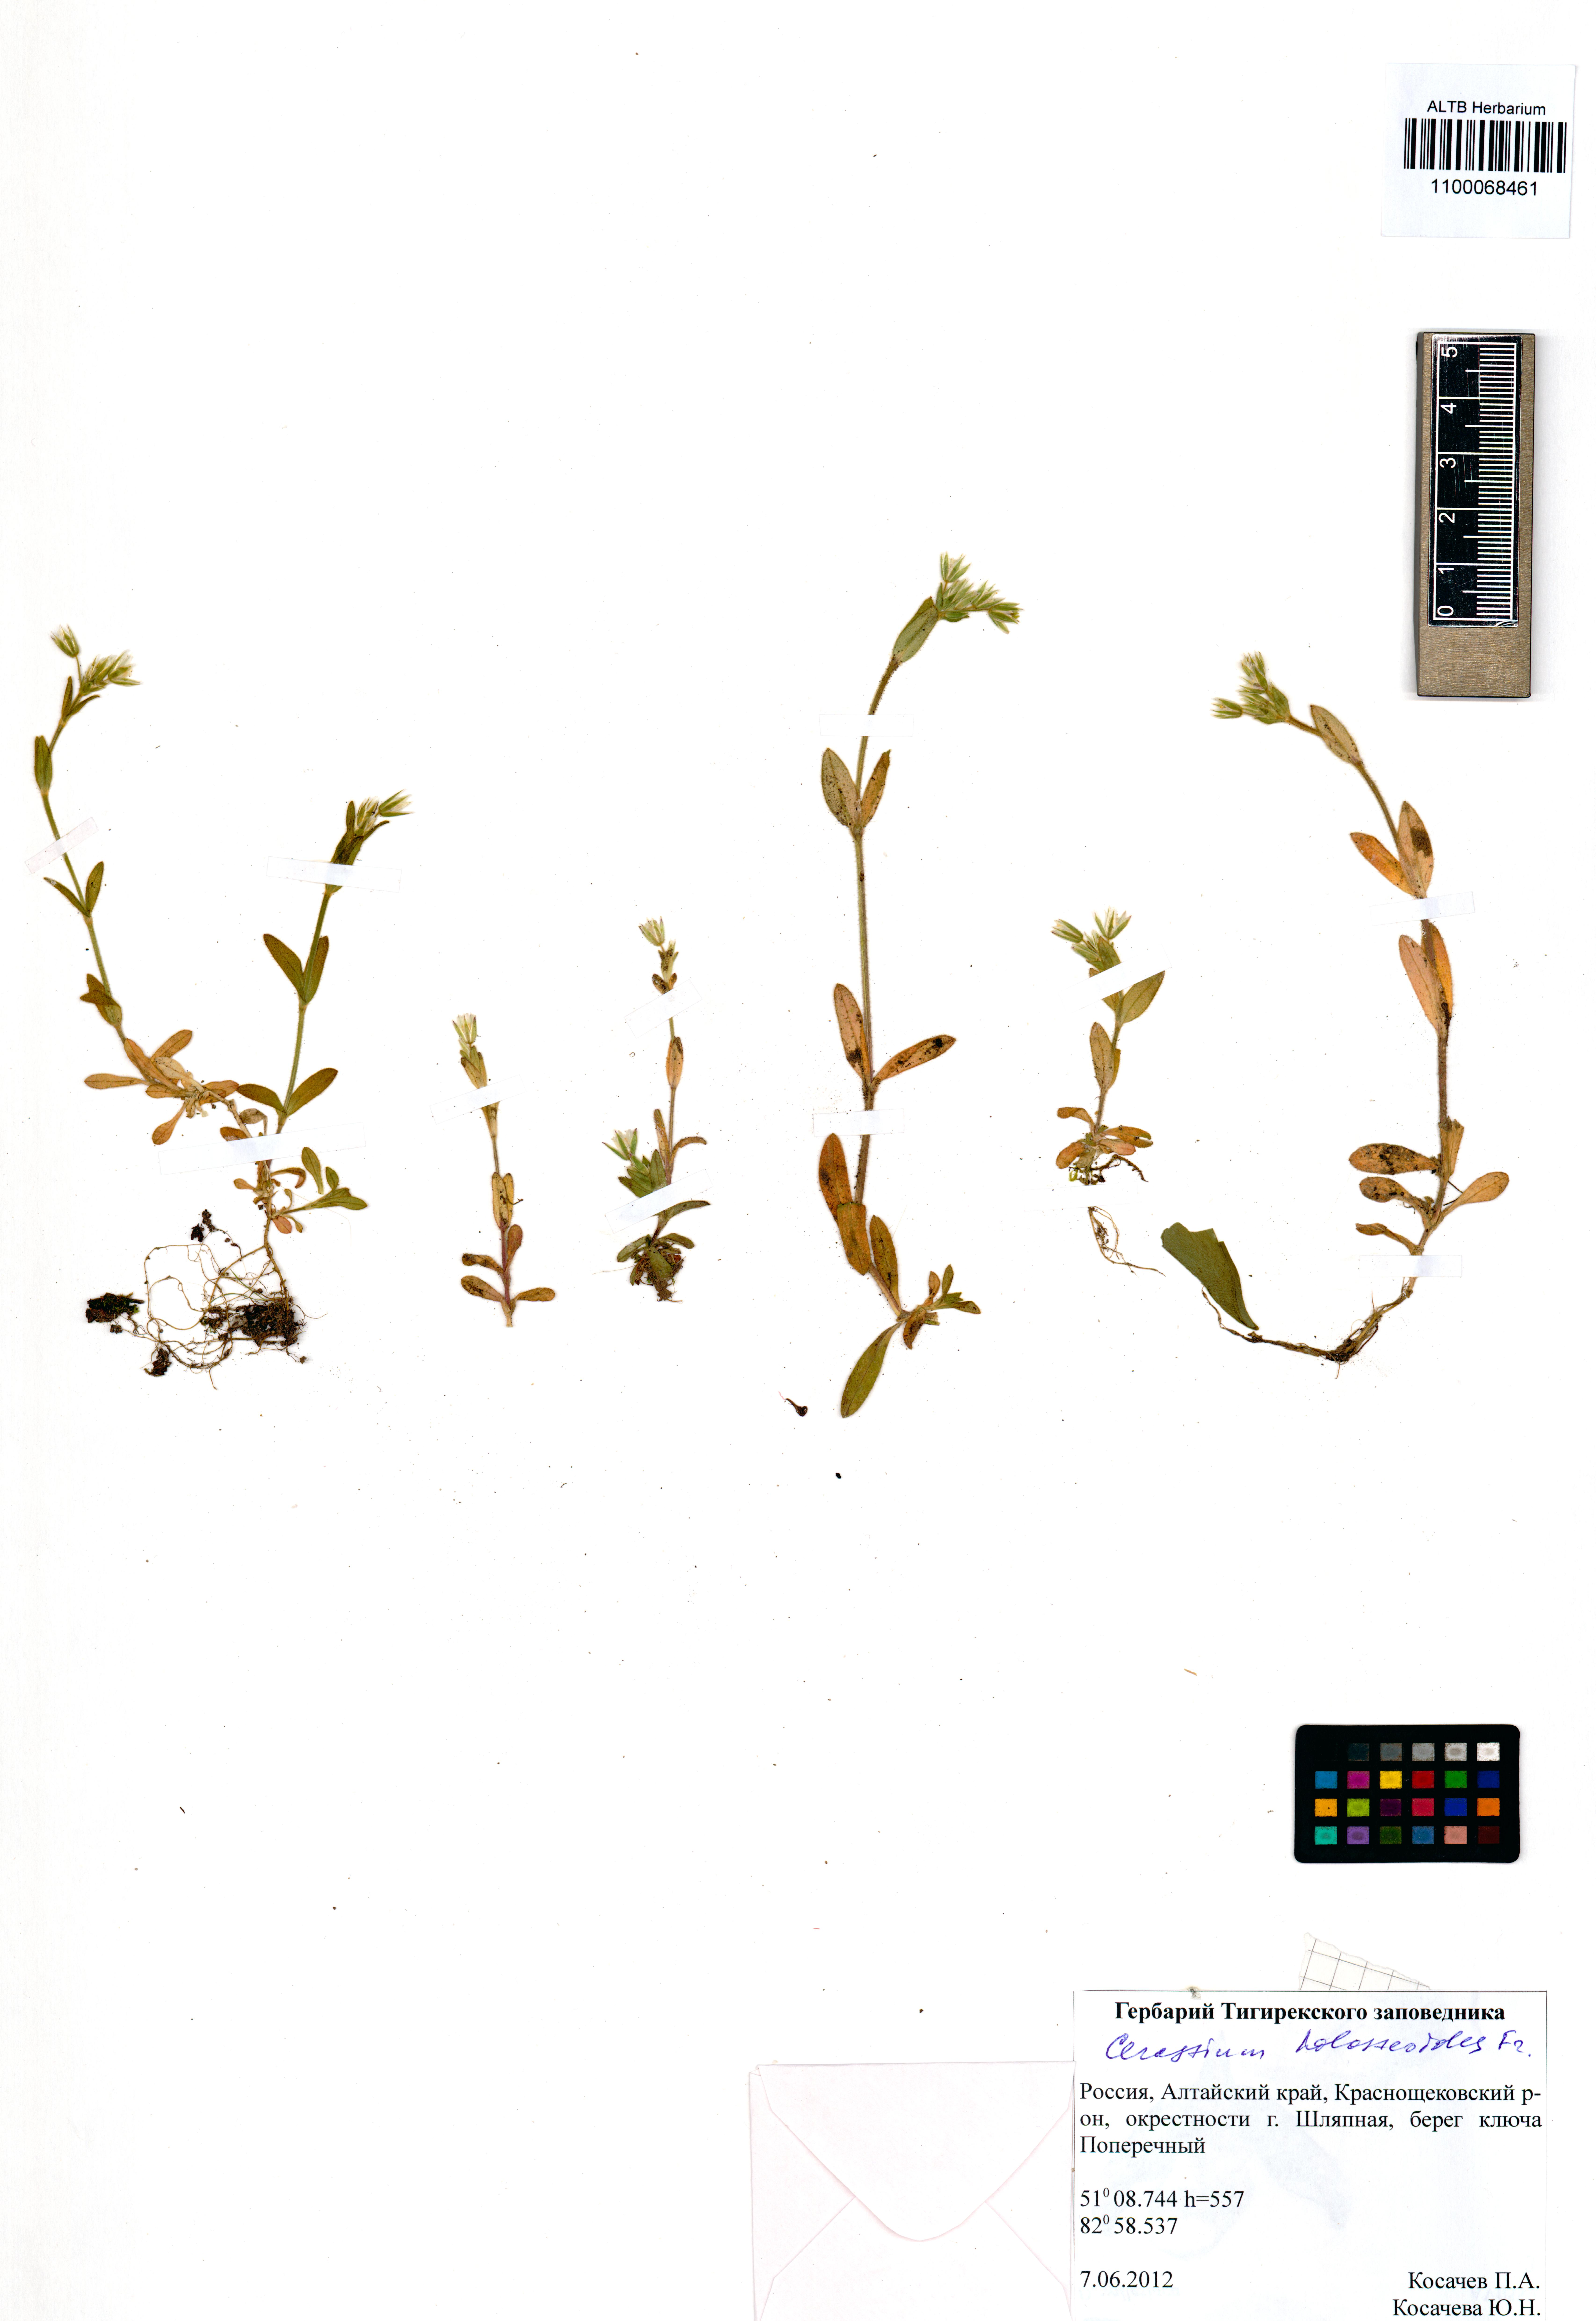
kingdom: Plantae
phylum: Tracheophyta
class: Magnoliopsida
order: Caryophyllales
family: Caryophyllaceae
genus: Cerastium
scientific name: Cerastium holosteoides
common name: Big chickweed
